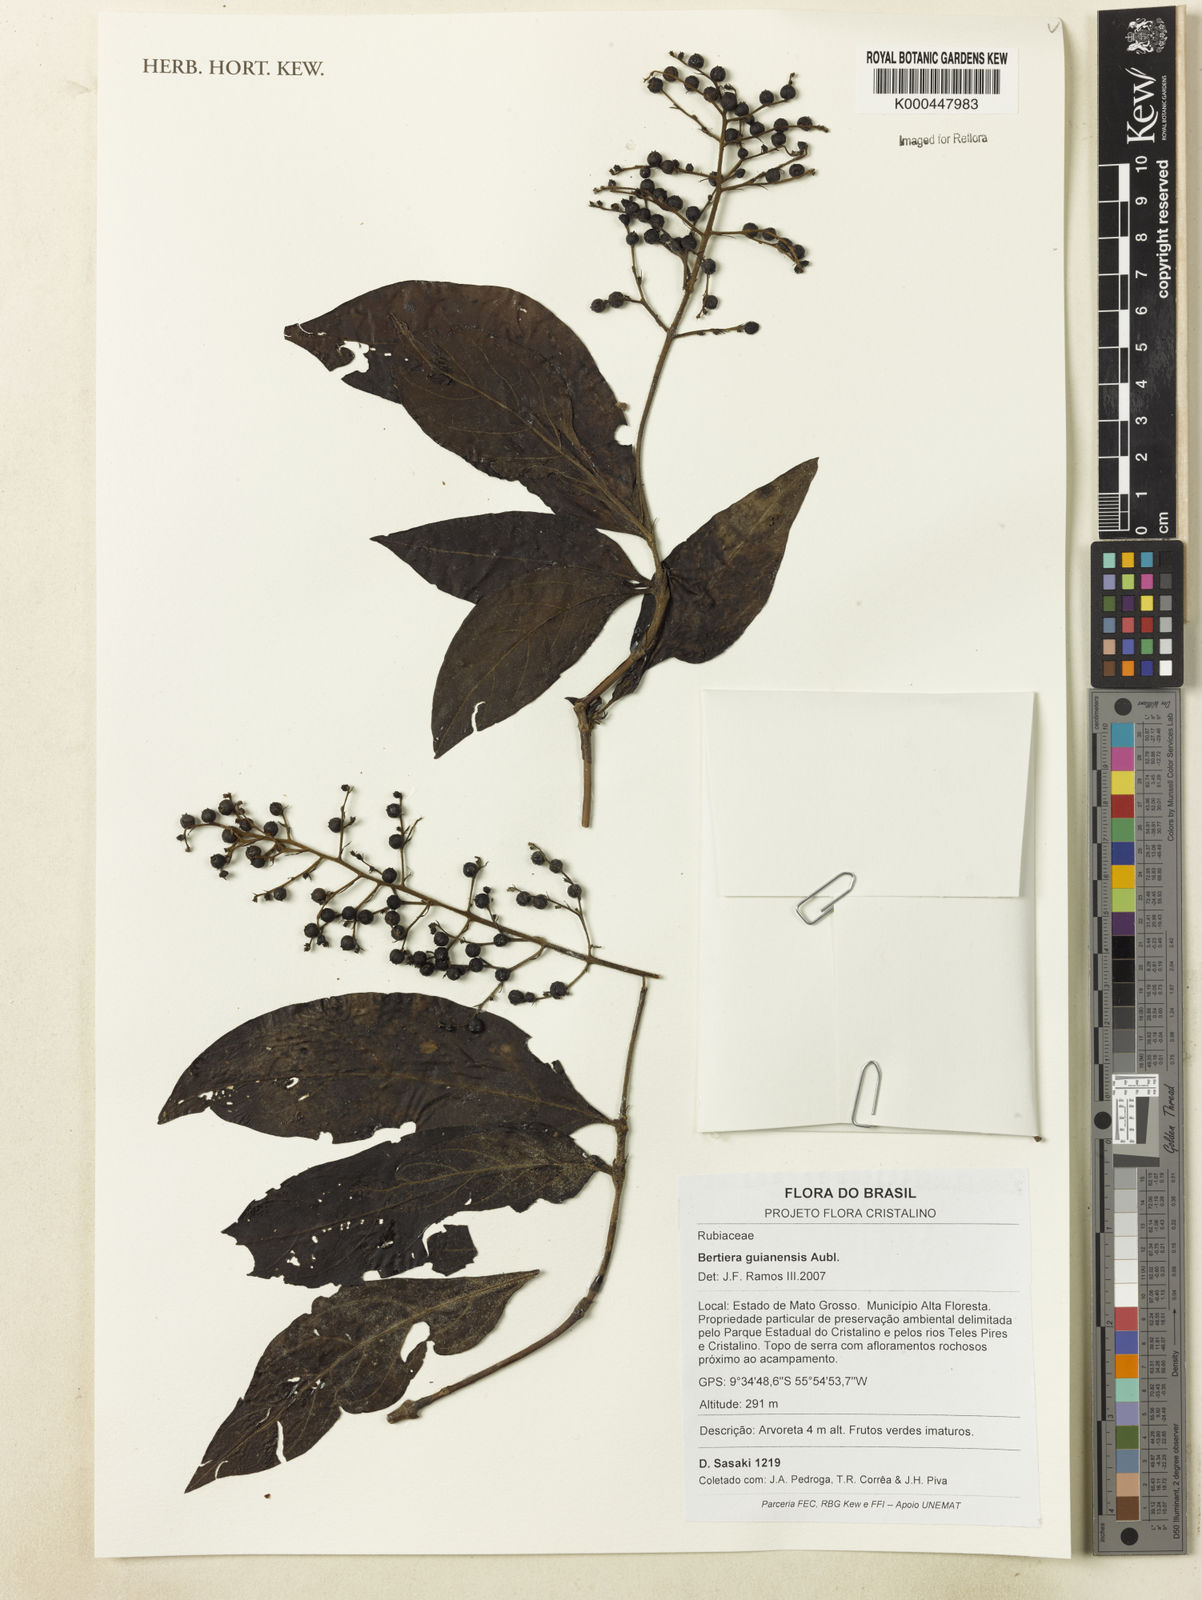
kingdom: Plantae
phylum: Tracheophyta
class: Magnoliopsida
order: Gentianales
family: Rubiaceae
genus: Bertiera
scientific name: Bertiera guianensis
